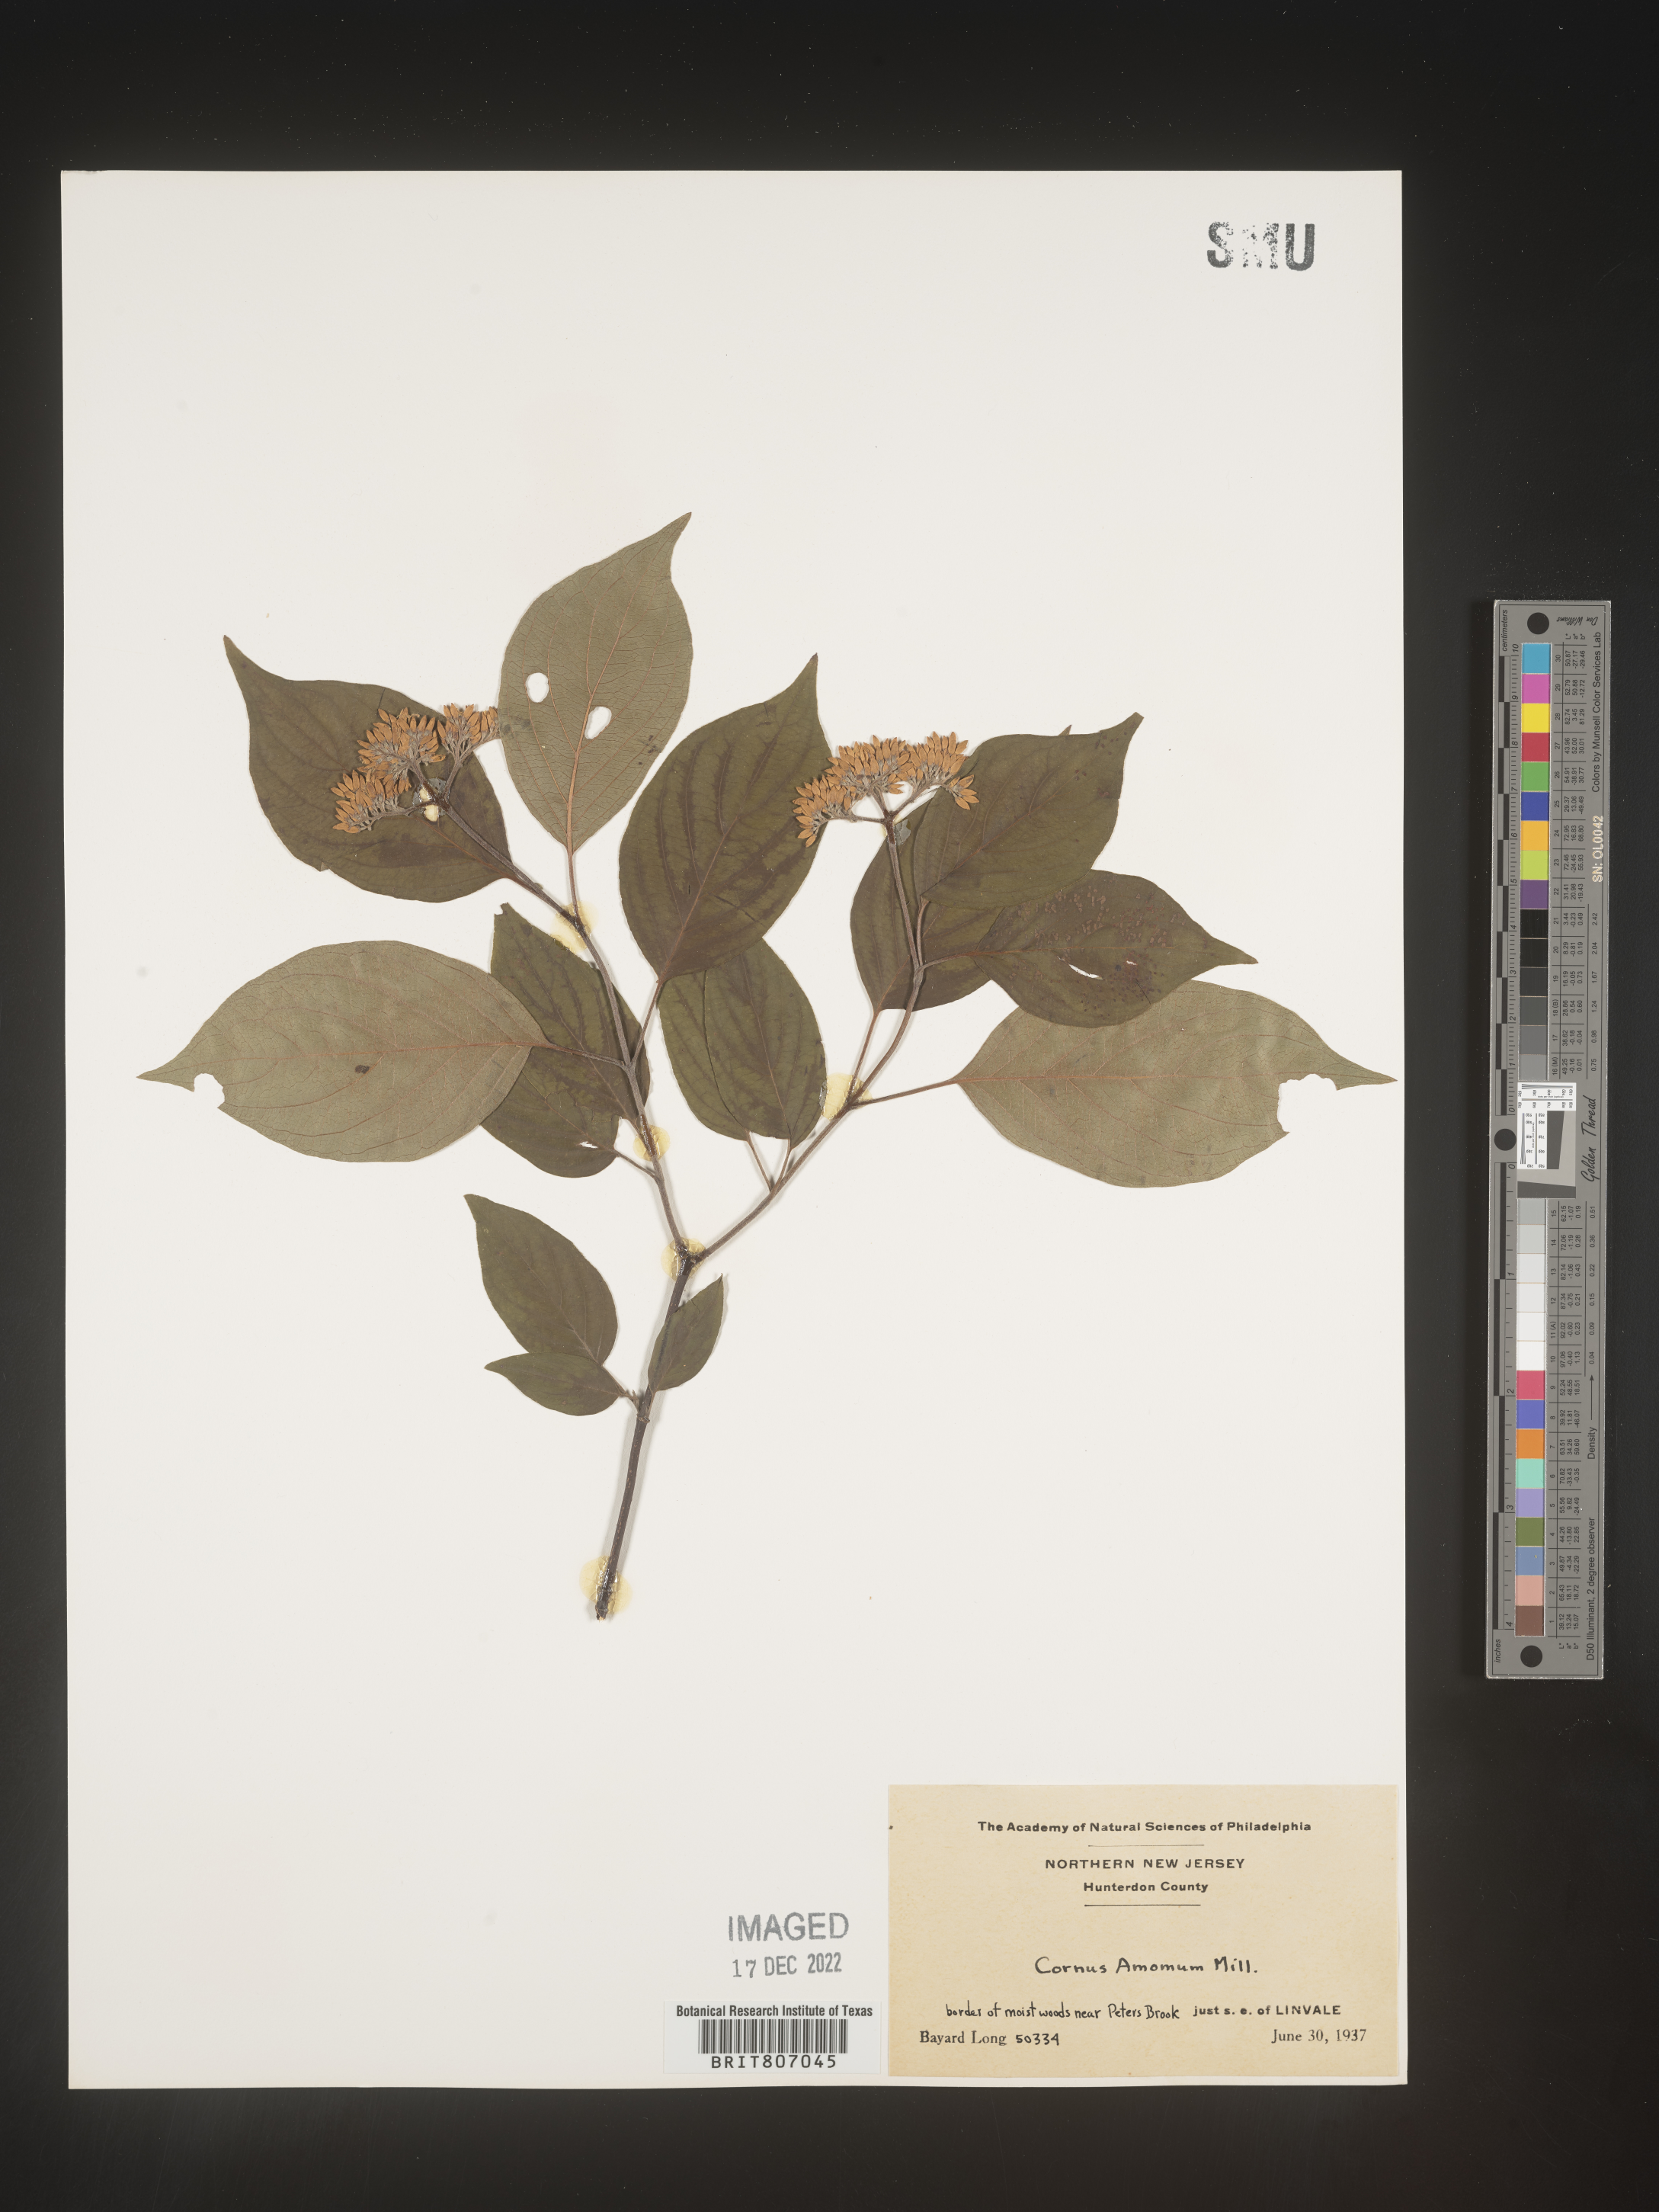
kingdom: Plantae
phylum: Tracheophyta
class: Magnoliopsida
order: Cornales
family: Cornaceae
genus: Cornus
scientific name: Cornus amomum
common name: Silky dogwood
